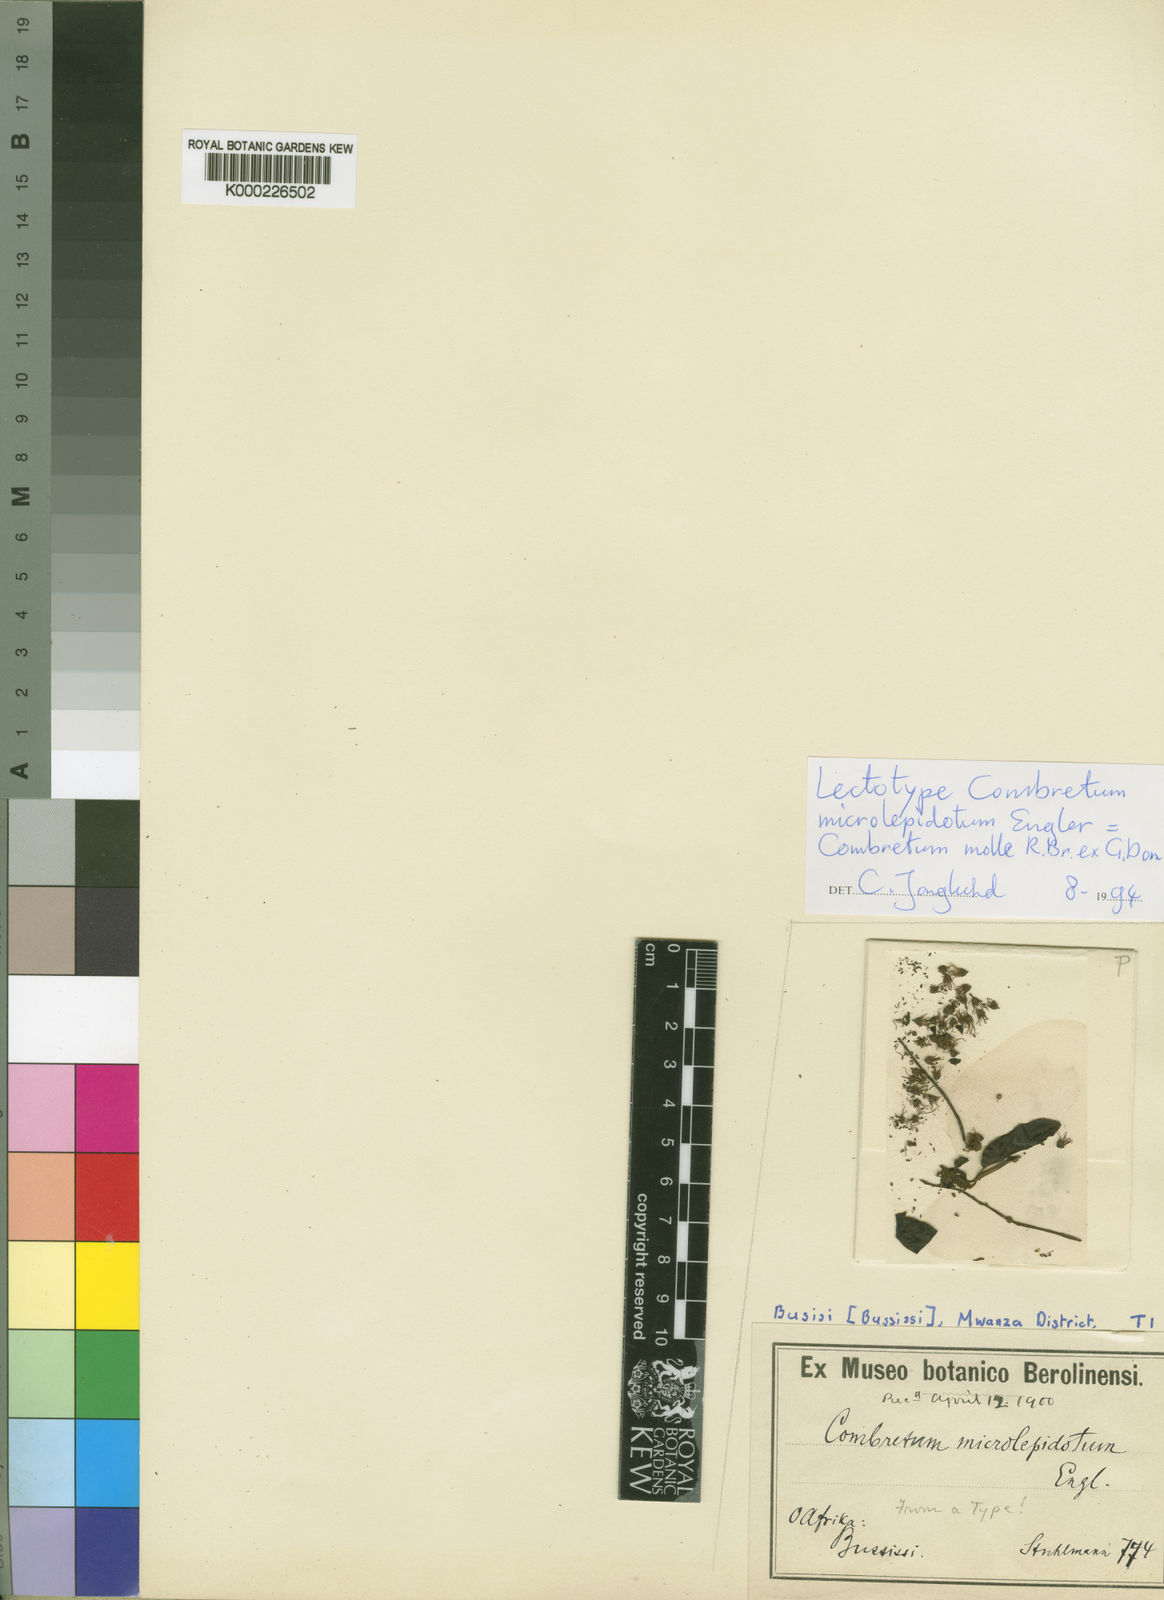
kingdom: Plantae
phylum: Tracheophyta
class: Magnoliopsida
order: Myrtales
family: Combretaceae
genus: Combretum
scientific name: Combretum molle
